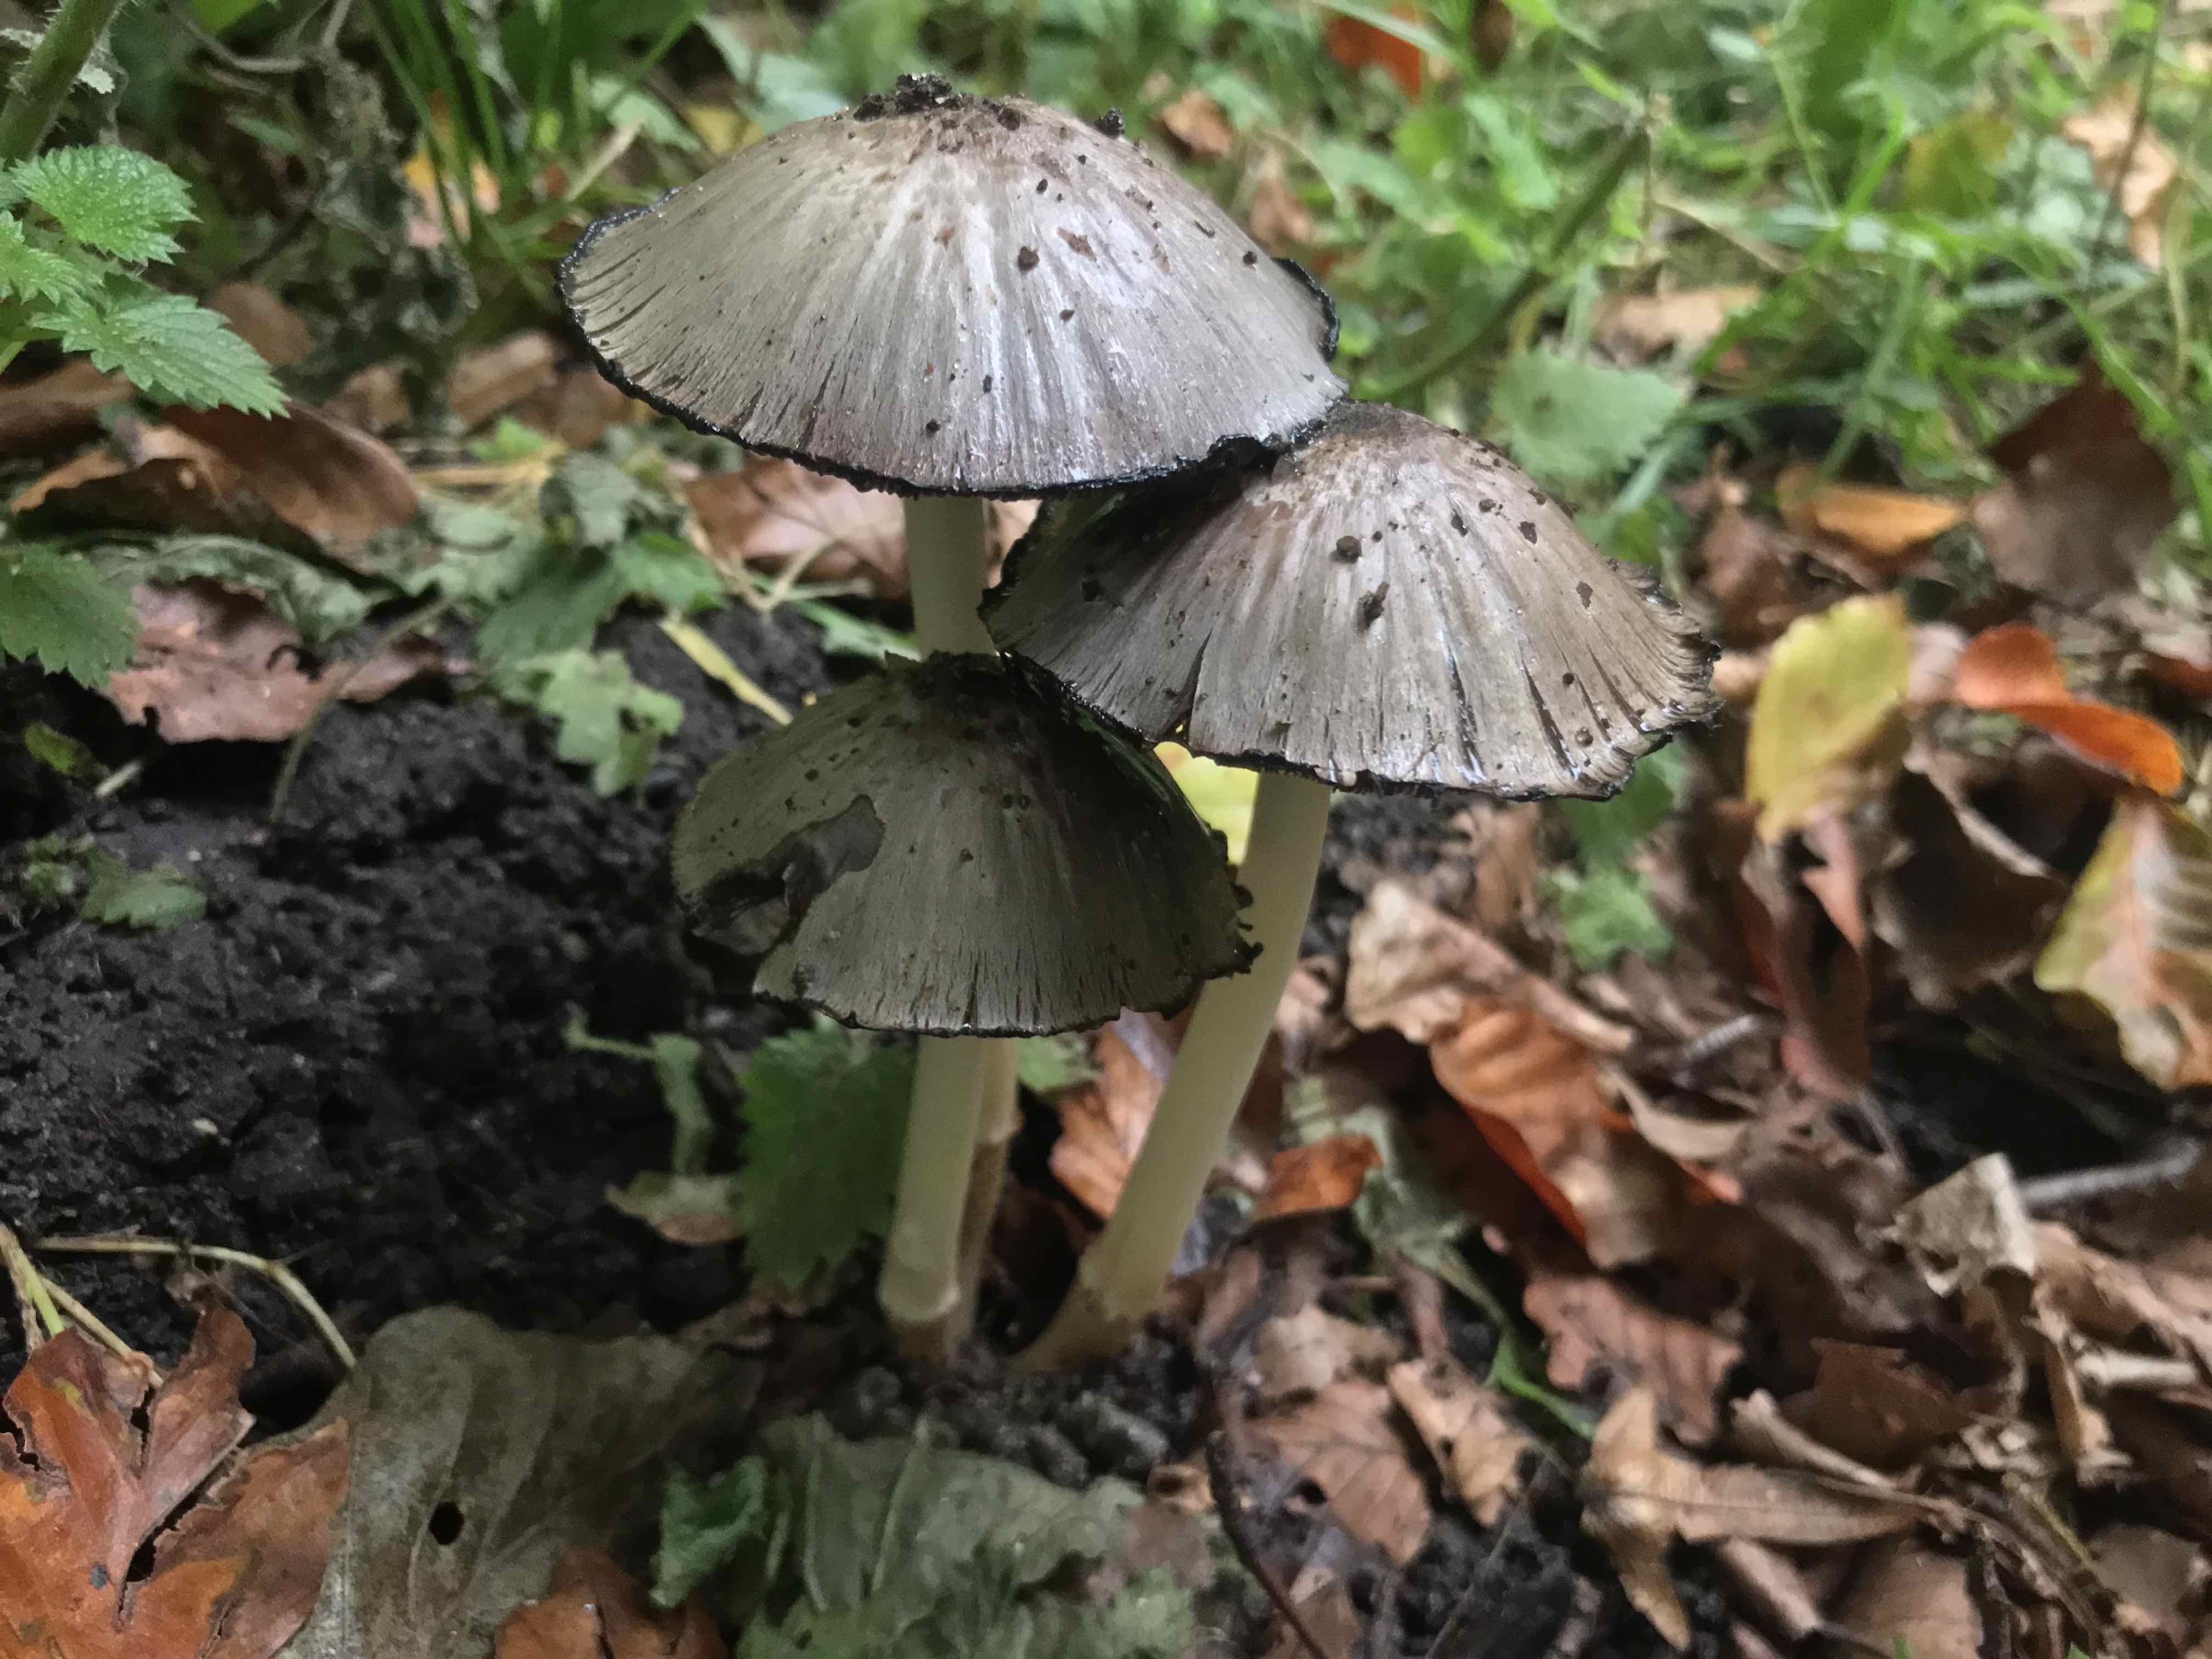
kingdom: Fungi
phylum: Basidiomycota
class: Agaricomycetes
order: Agaricales
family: Psathyrellaceae
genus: Coprinopsis
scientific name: Coprinopsis atramentaria
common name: almindelig blækhat
